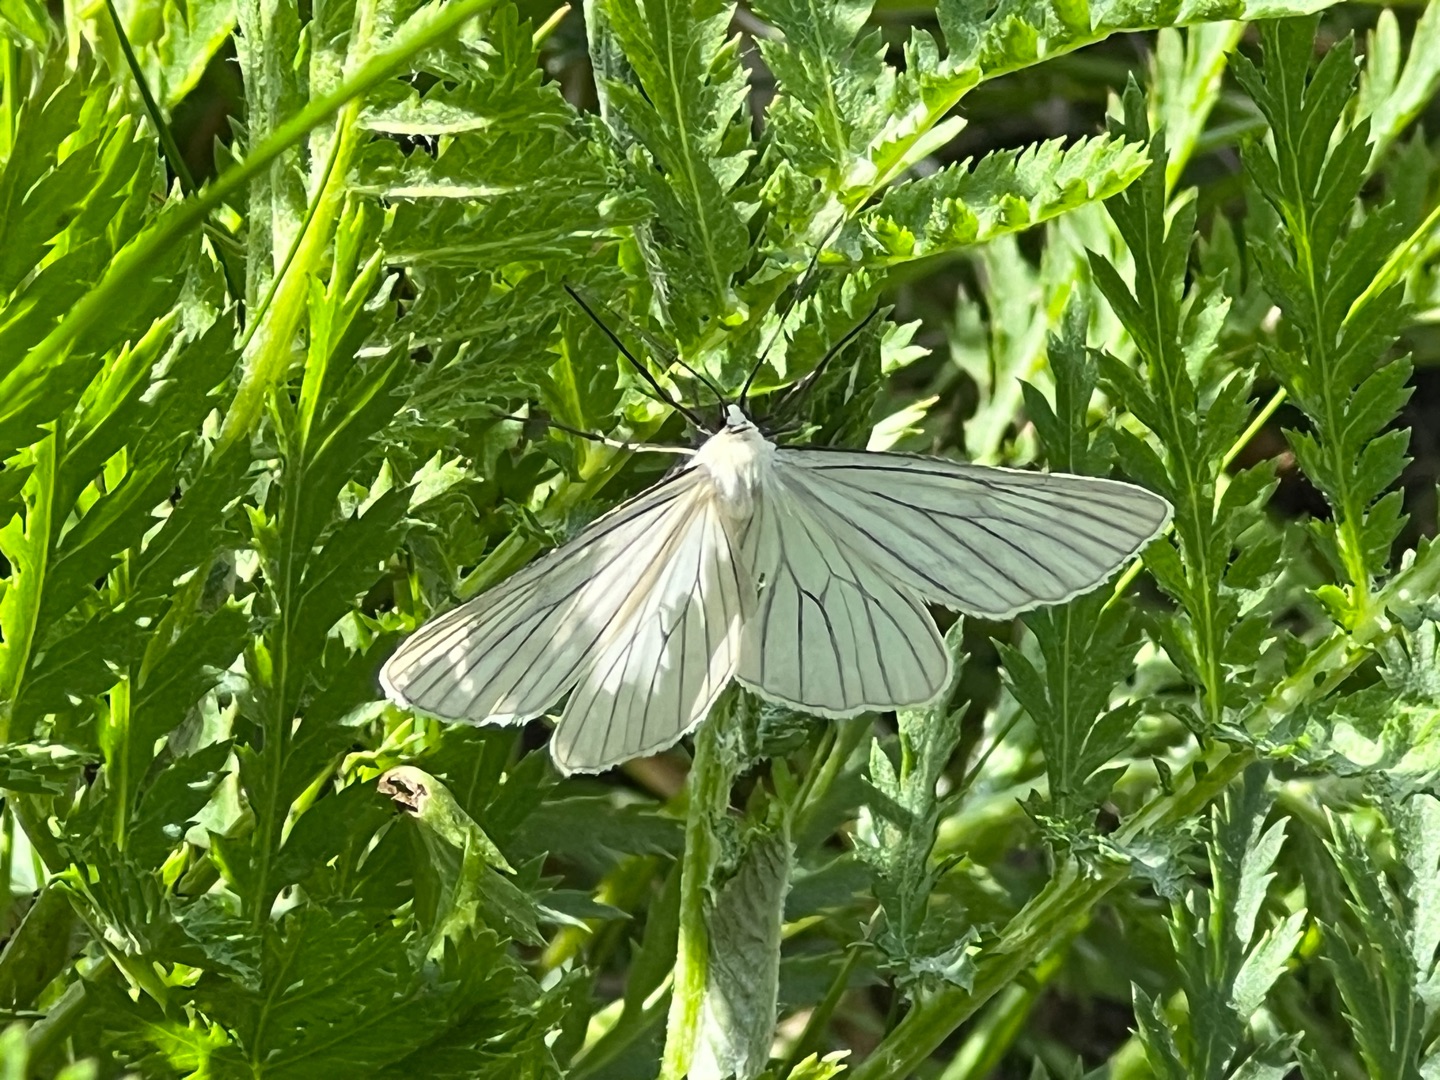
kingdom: Animalia
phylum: Arthropoda
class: Insecta
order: Lepidoptera
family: Geometridae
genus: Siona
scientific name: Siona lineata
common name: Hvidvingemåler
